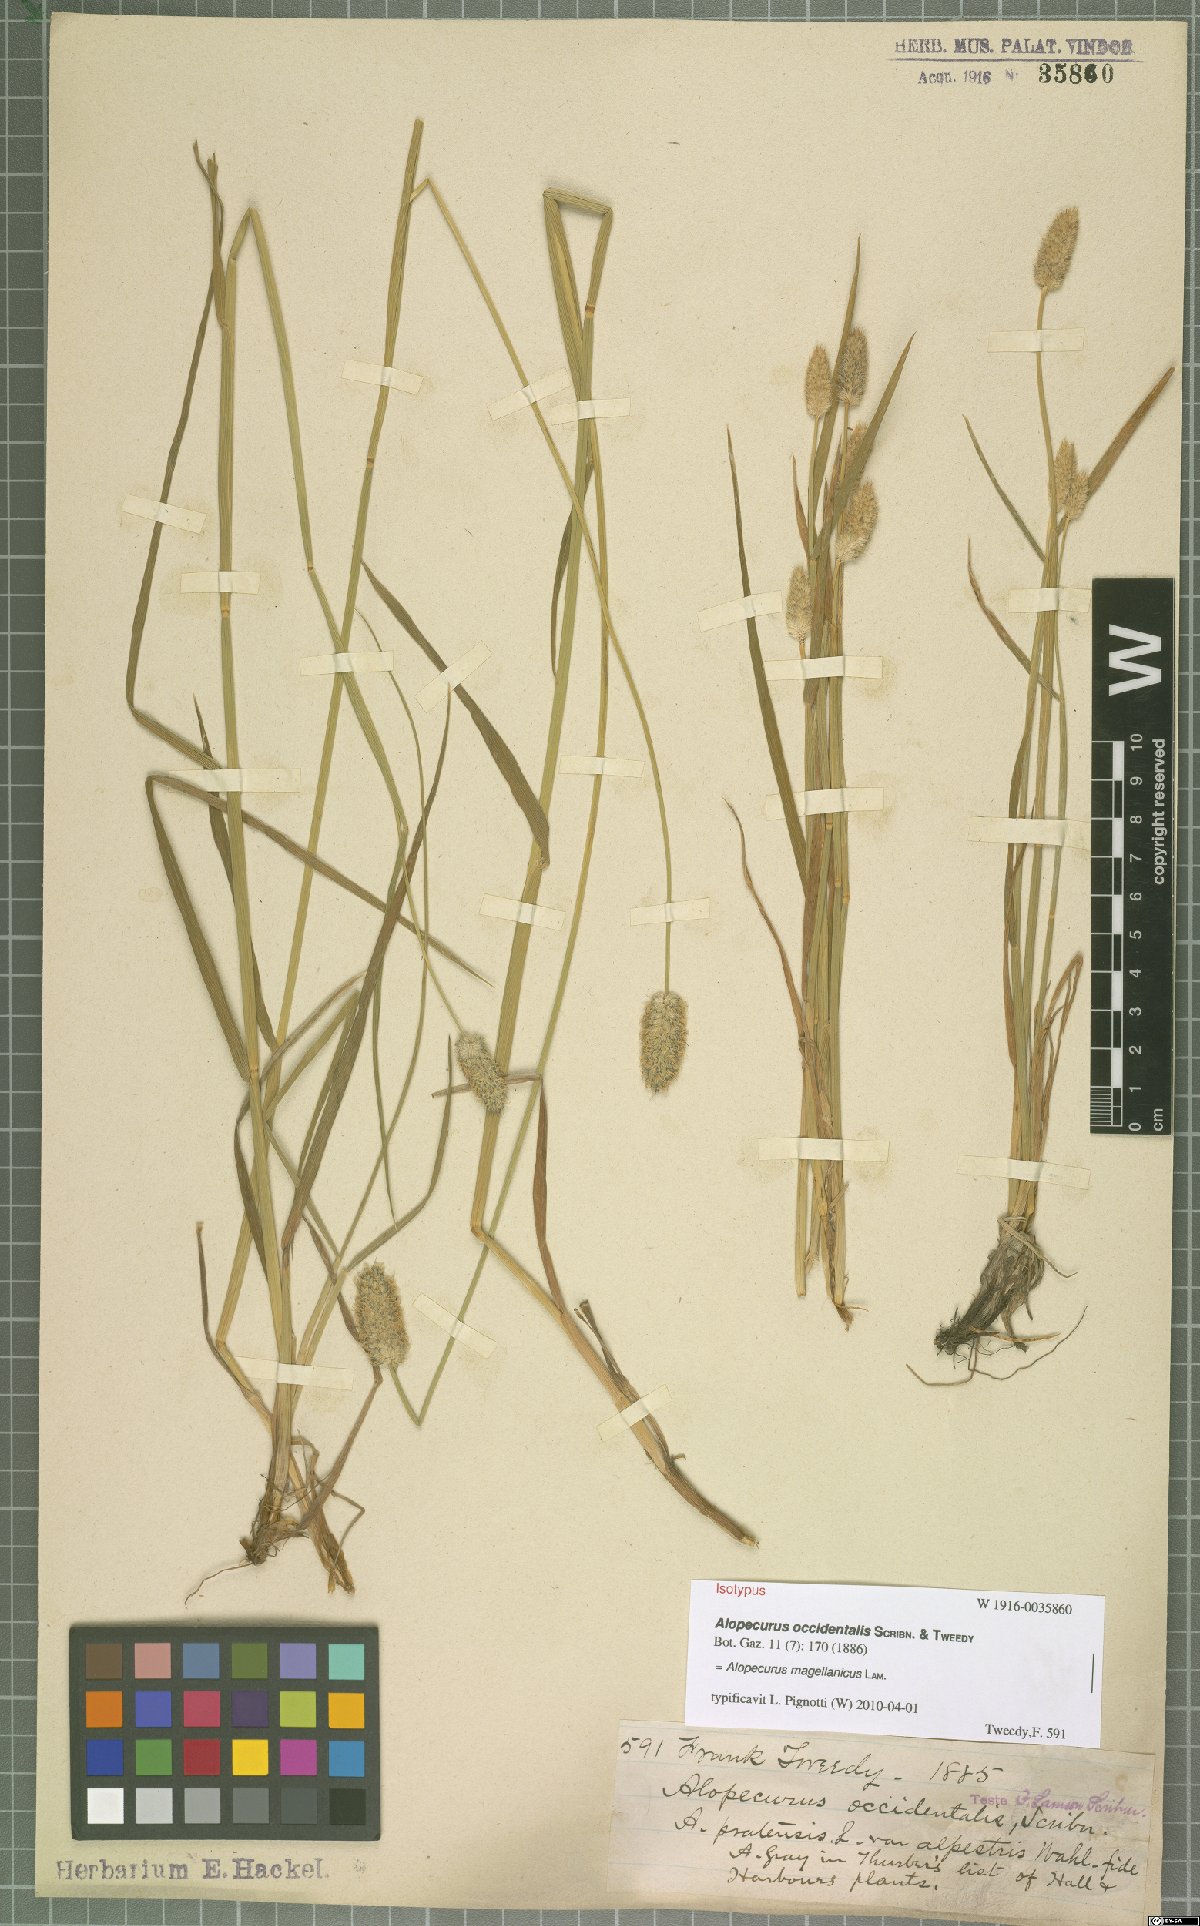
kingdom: Plantae
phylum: Tracheophyta
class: Liliopsida
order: Poales
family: Poaceae
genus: Alopecurus
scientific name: Alopecurus magellanicus
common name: Alpine foxtail
